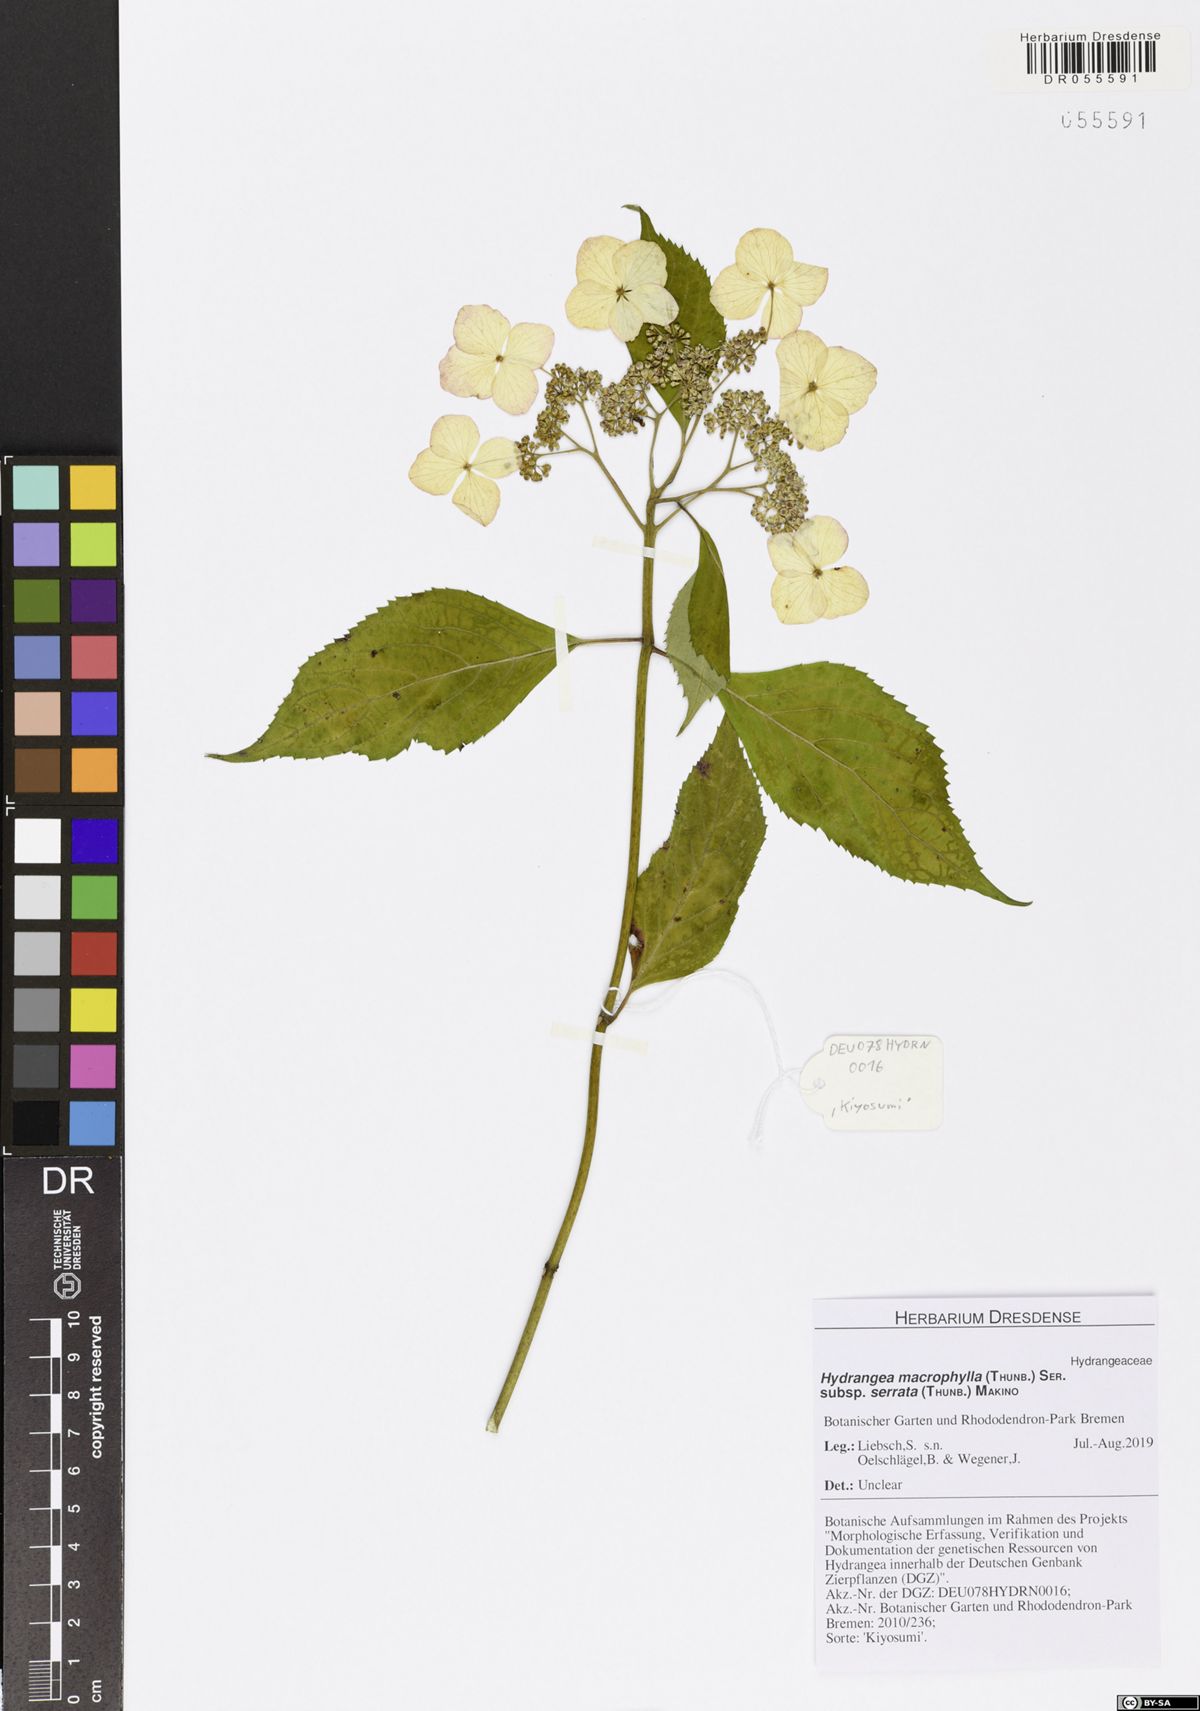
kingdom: Plantae
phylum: Tracheophyta
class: Magnoliopsida
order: Cornales
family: Hydrangeaceae
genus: Hydrangea
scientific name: Hydrangea serrata
